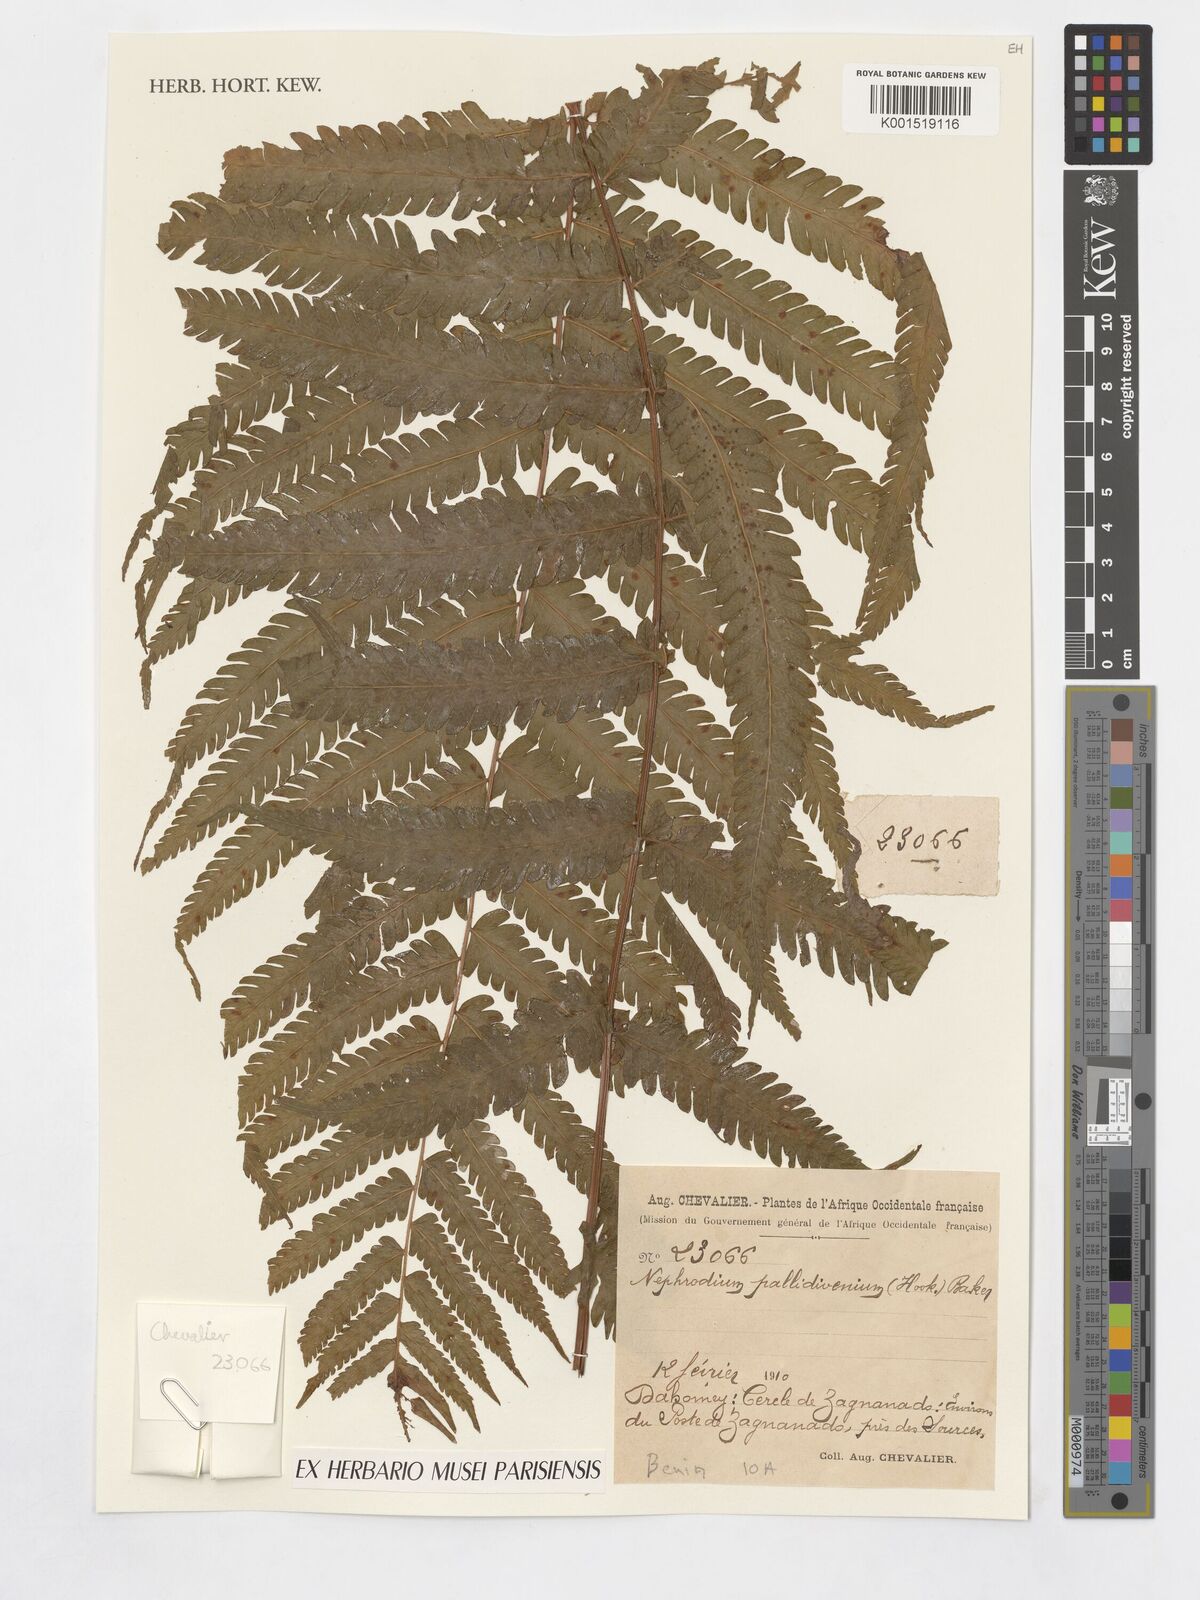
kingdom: Plantae
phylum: Tracheophyta
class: Polypodiopsida
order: Polypodiales
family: Thelypteridaceae
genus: Cyclosorus
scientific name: Cyclosorus striatus
